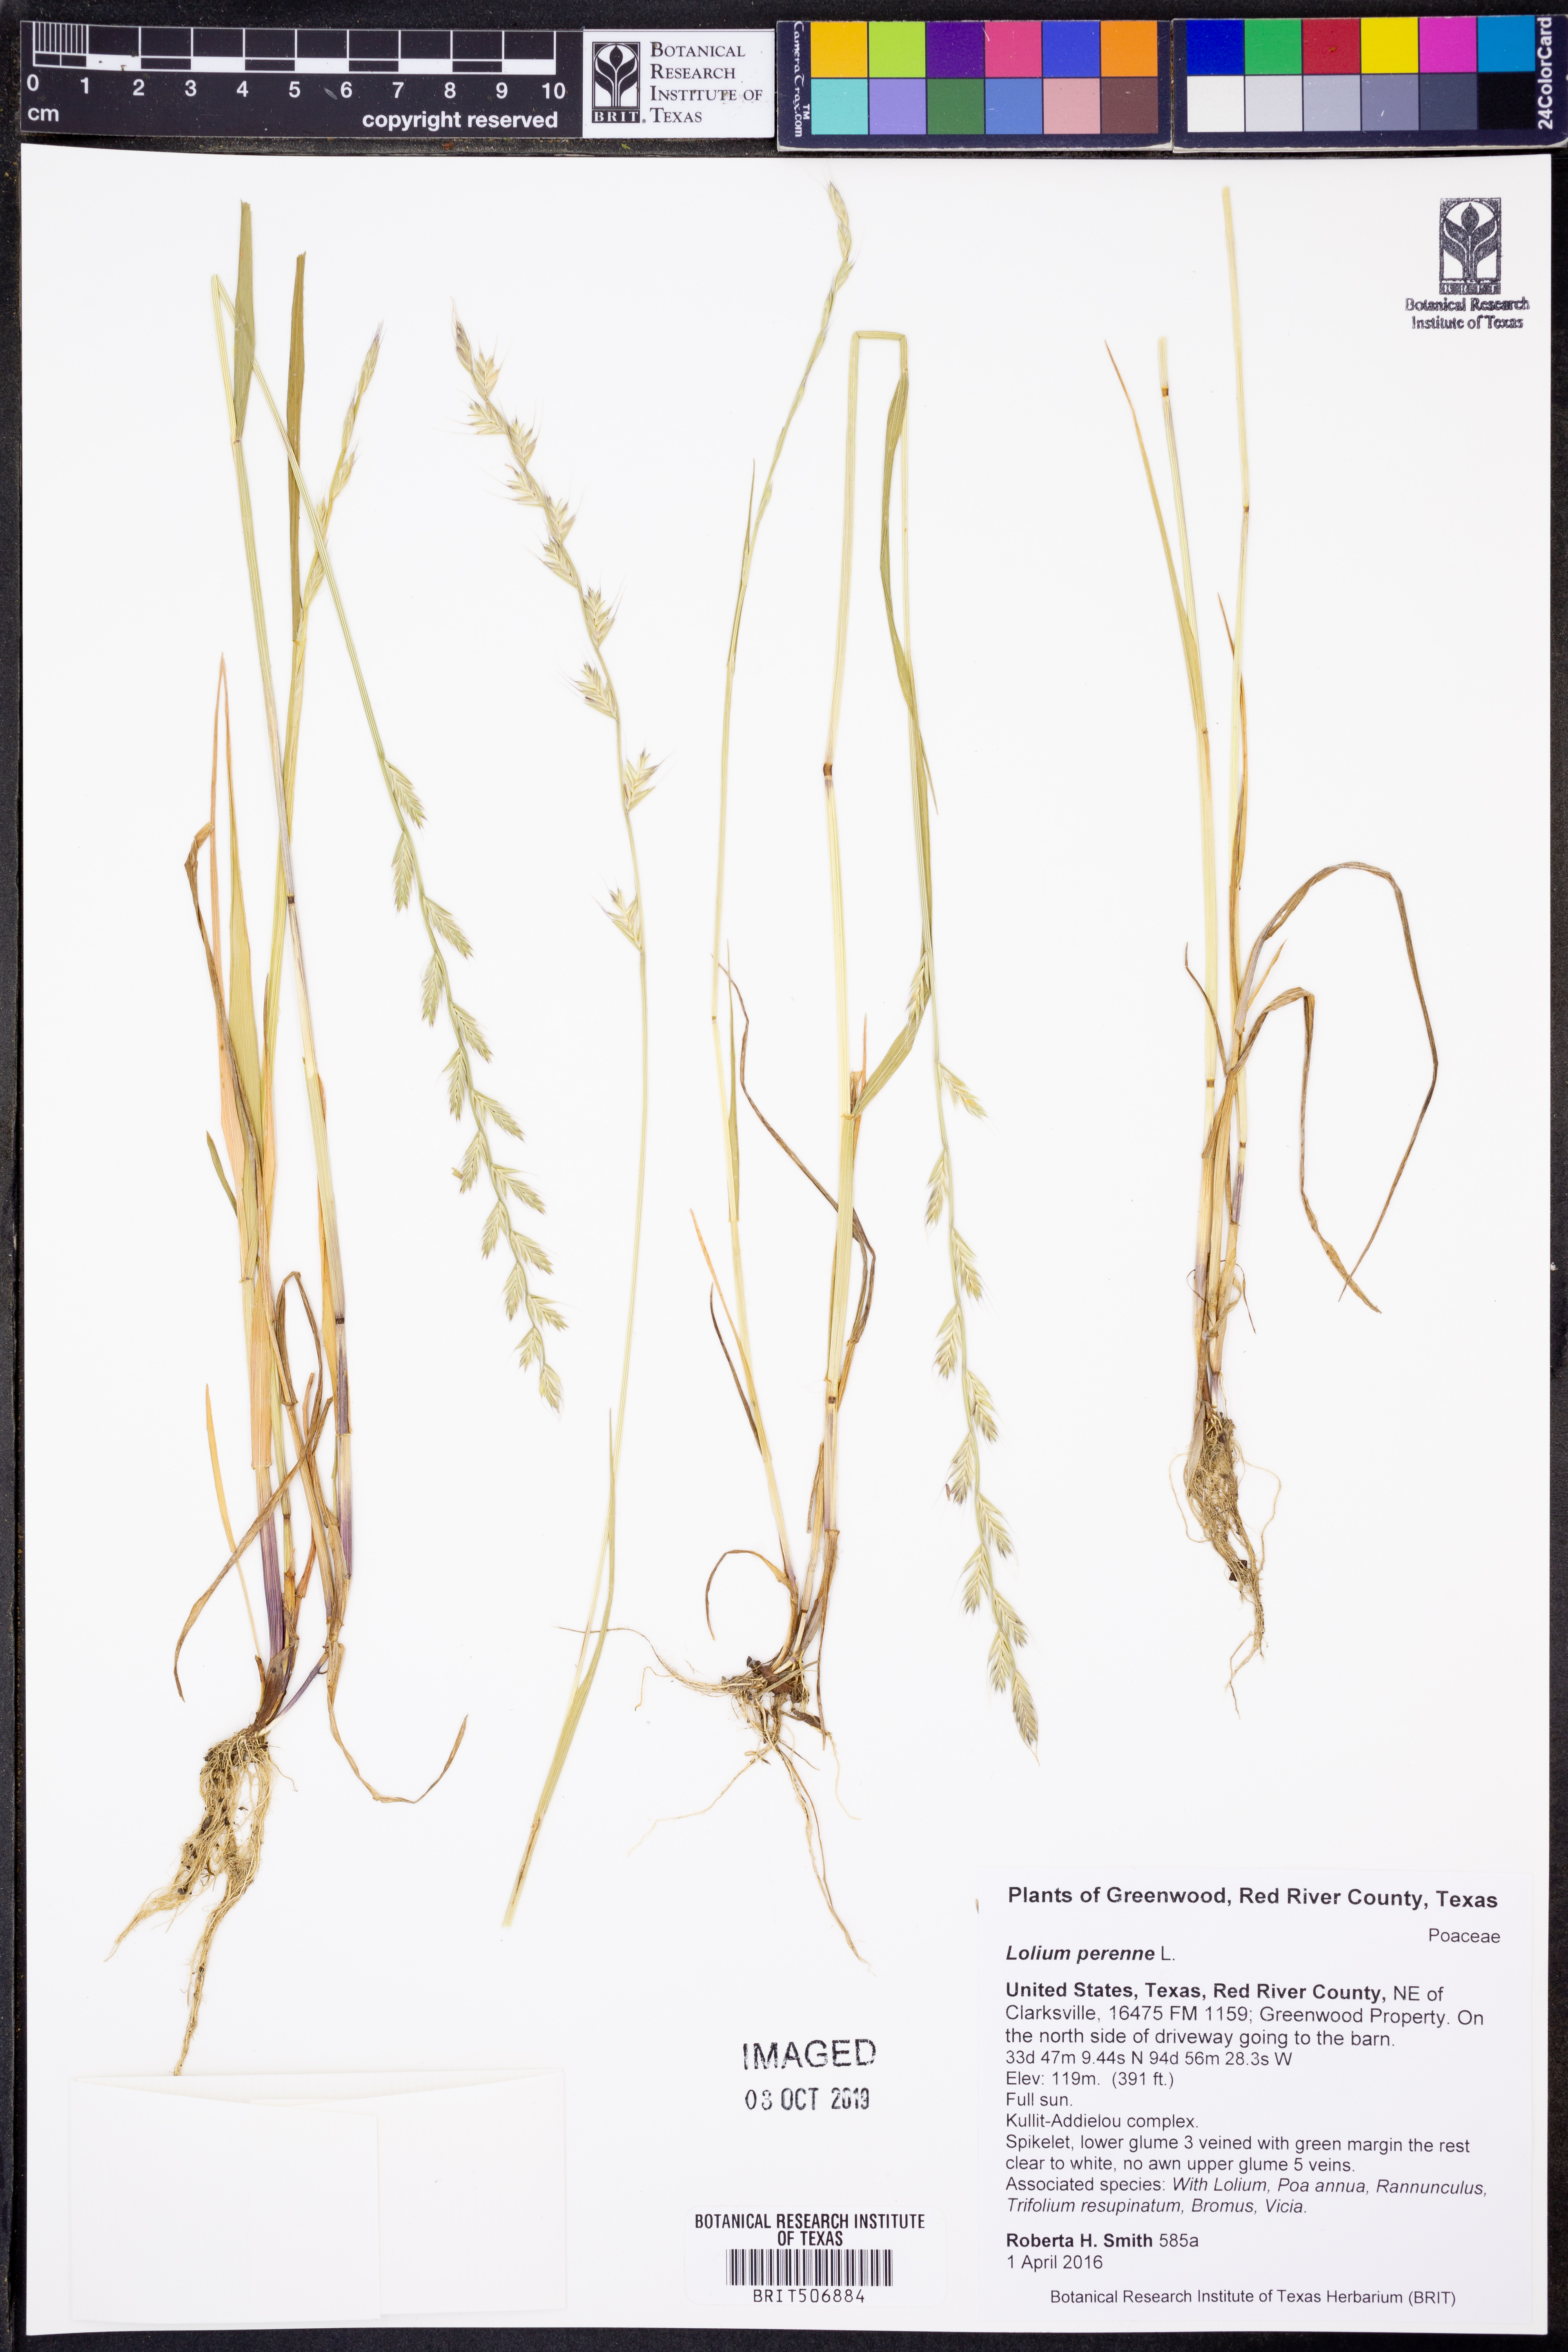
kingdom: Plantae
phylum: Tracheophyta
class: Liliopsida
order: Poales
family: Poaceae
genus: Lolium
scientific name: Lolium perenne
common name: Perennial ryegrass
